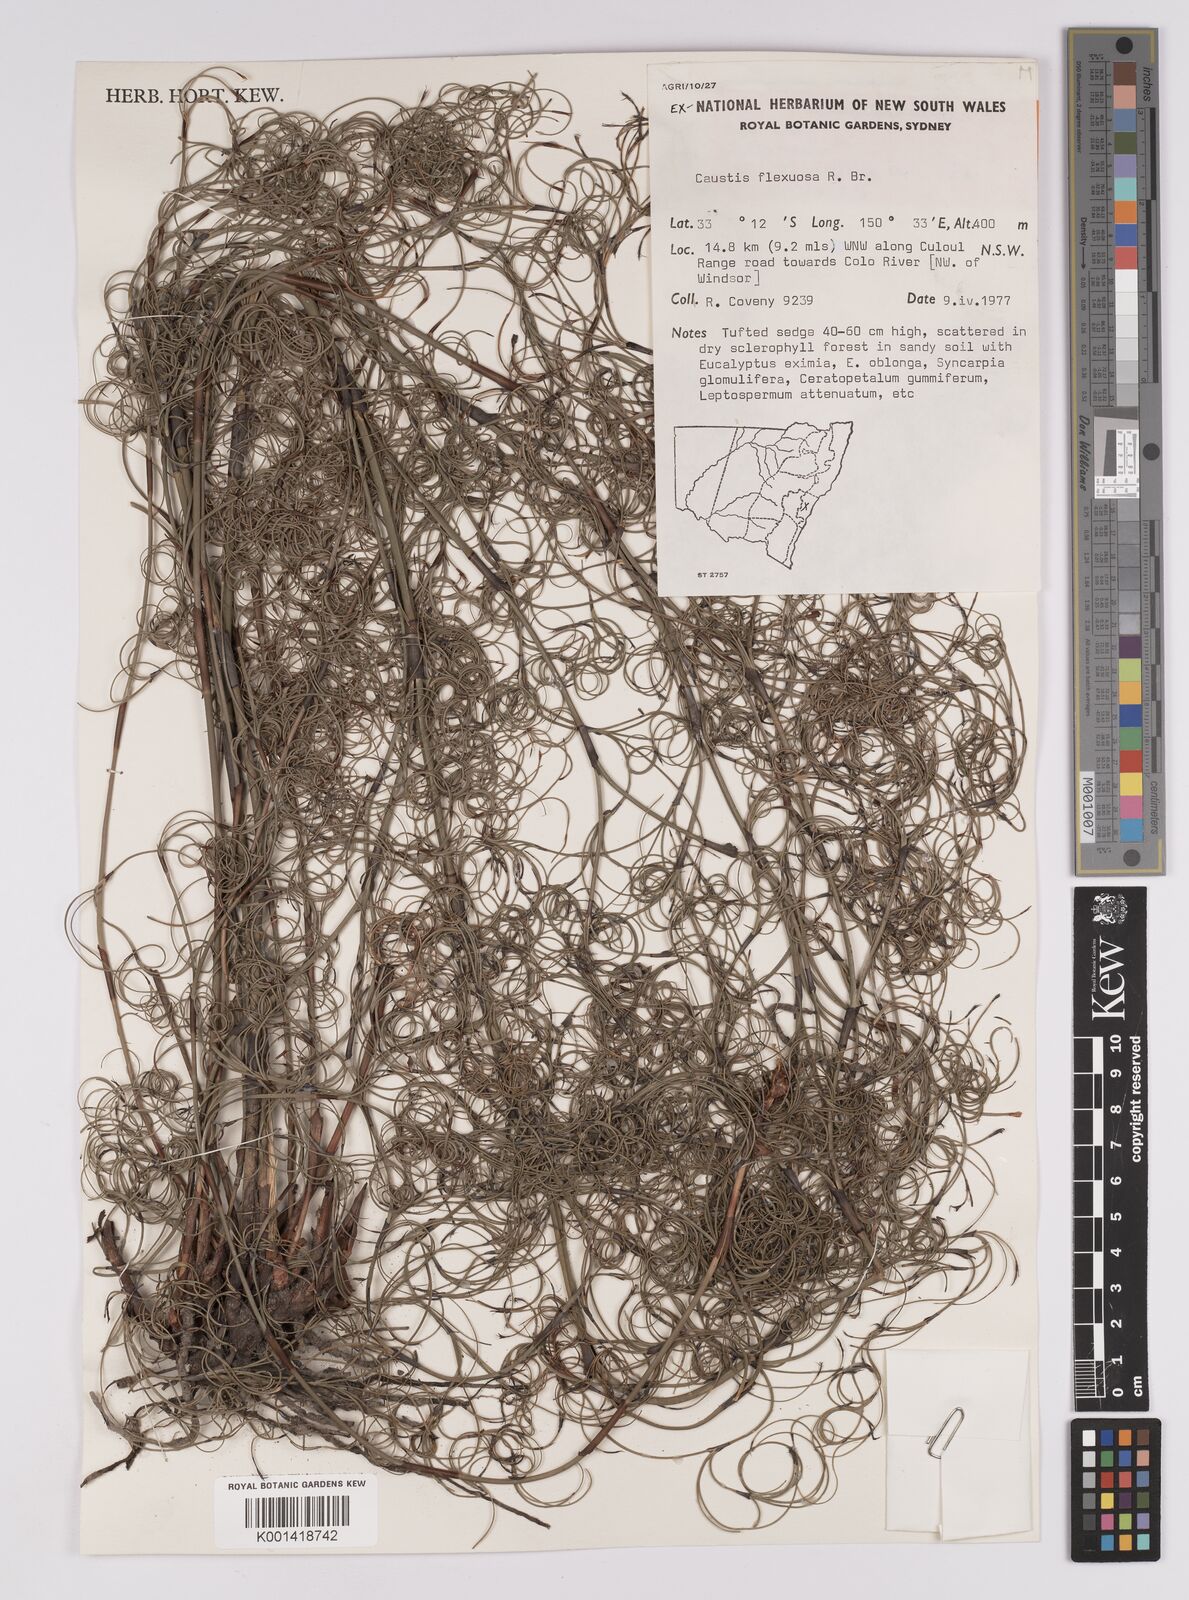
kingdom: Plantae
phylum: Tracheophyta
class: Liliopsida
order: Poales
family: Cyperaceae
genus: Caustis
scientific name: Caustis flexuosa
